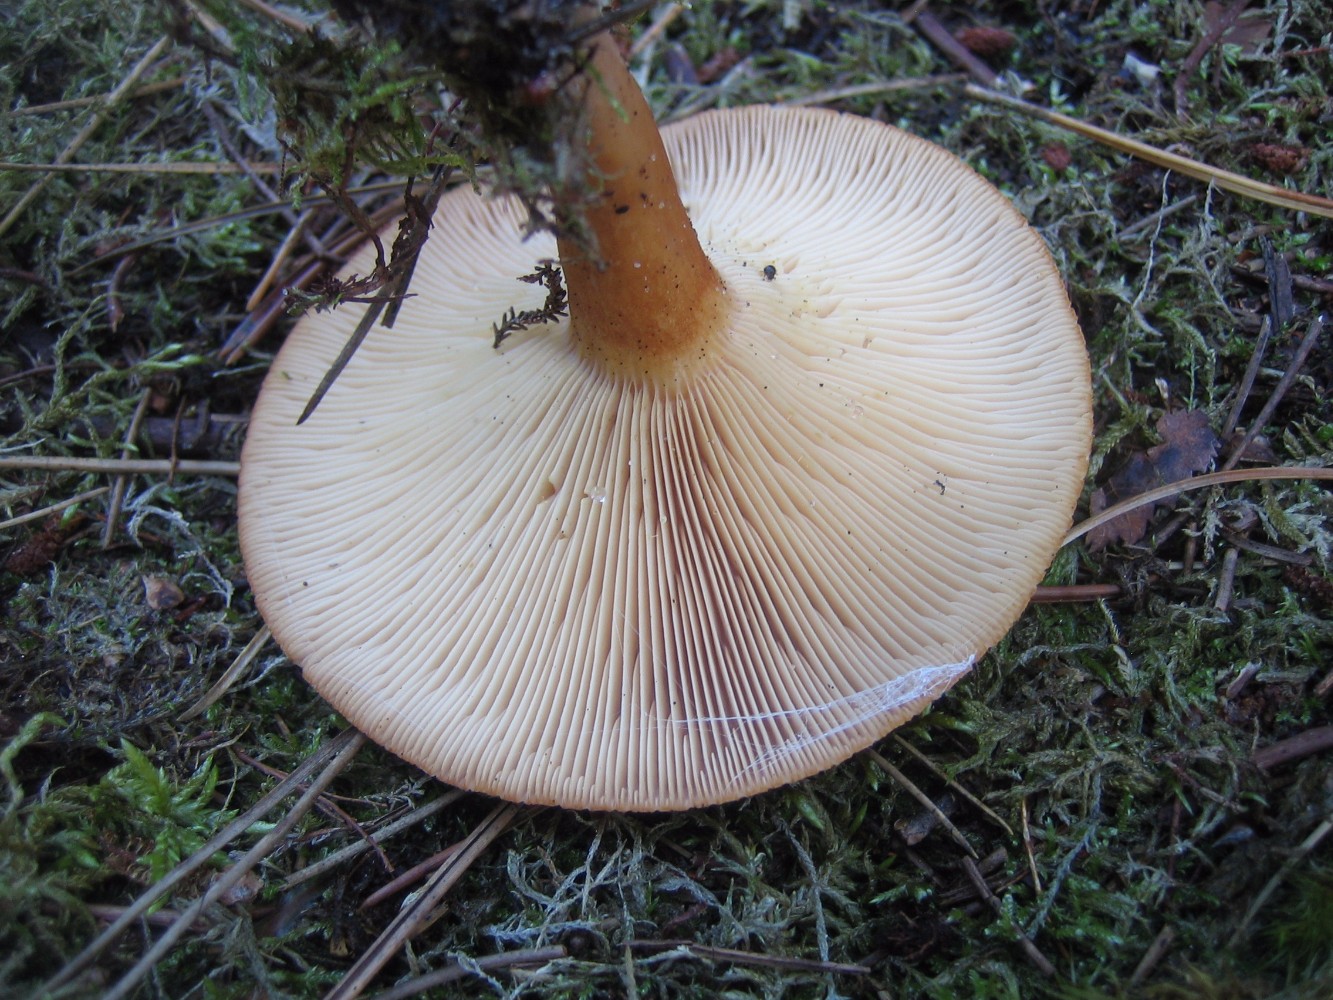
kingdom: Fungi
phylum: Basidiomycota
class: Agaricomycetes
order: Russulales
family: Russulaceae
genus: Lactarius
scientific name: Lactarius helvus
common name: mose-mælkehat
